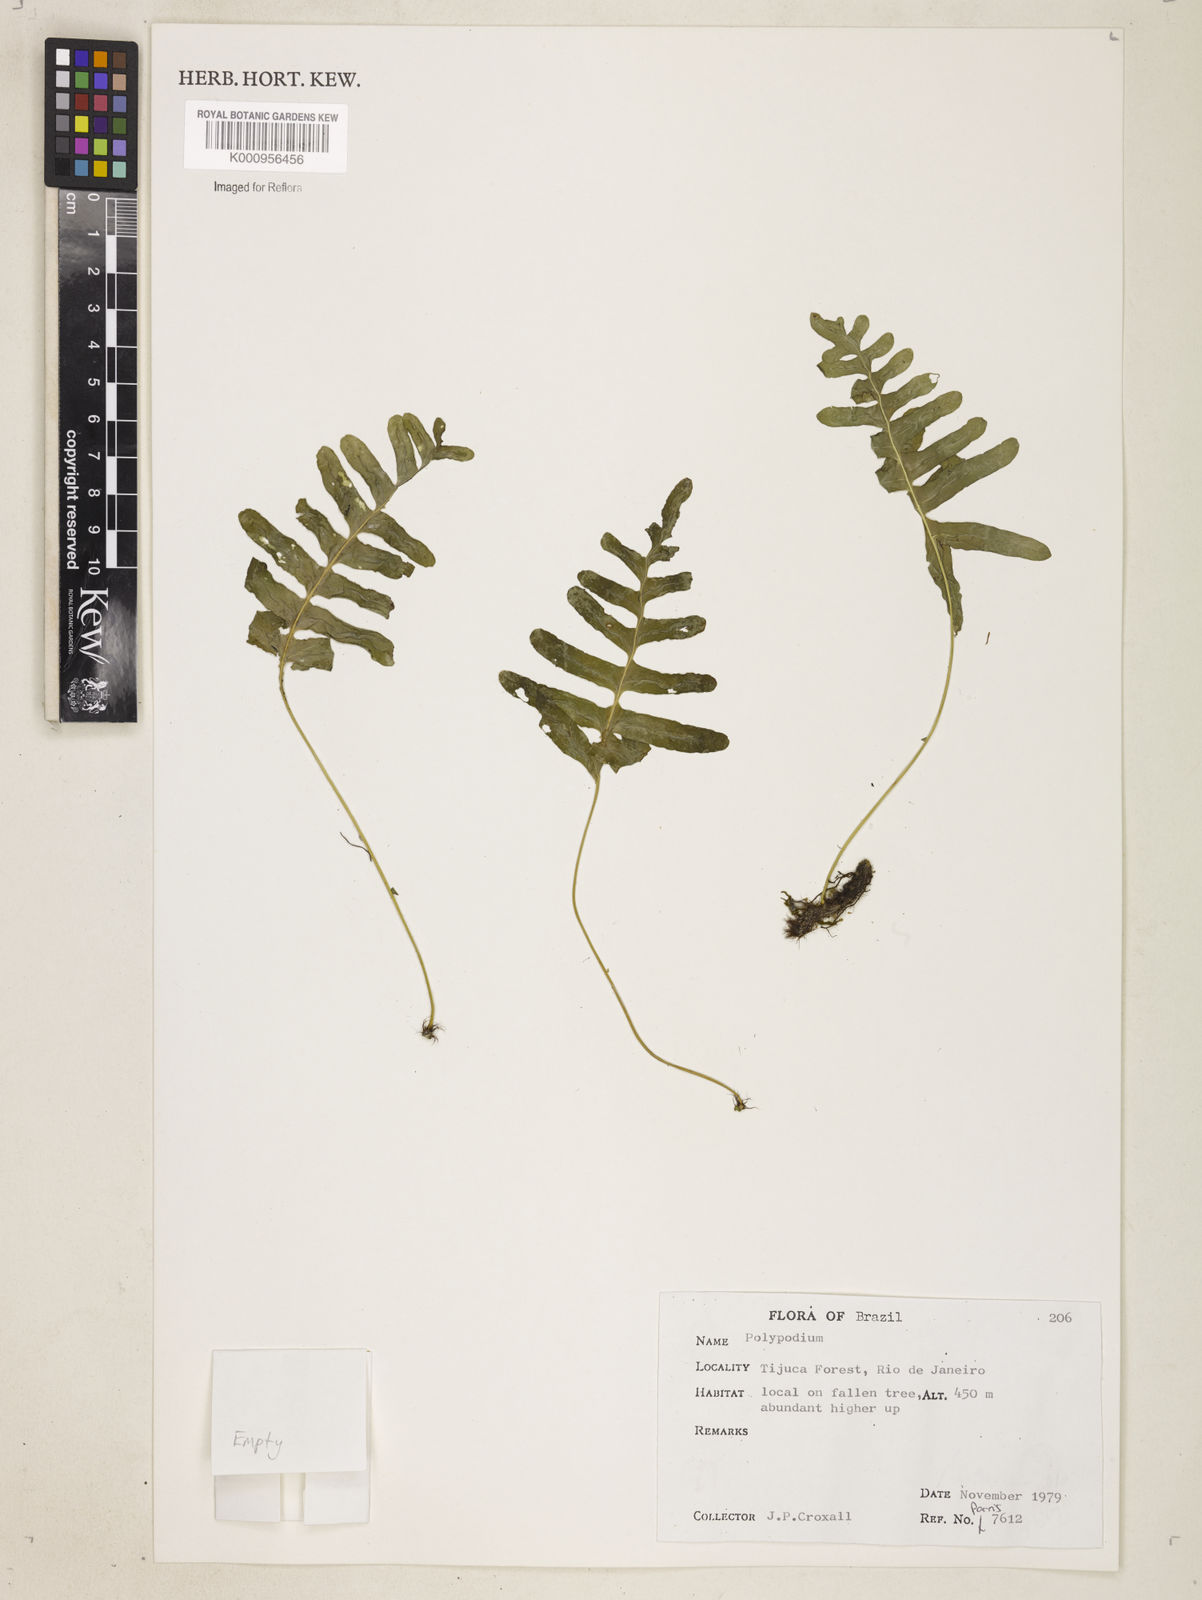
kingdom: Plantae
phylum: Tracheophyta
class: Polypodiopsida
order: Polypodiales
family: Polypodiaceae
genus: Polypodium
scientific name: Polypodium
